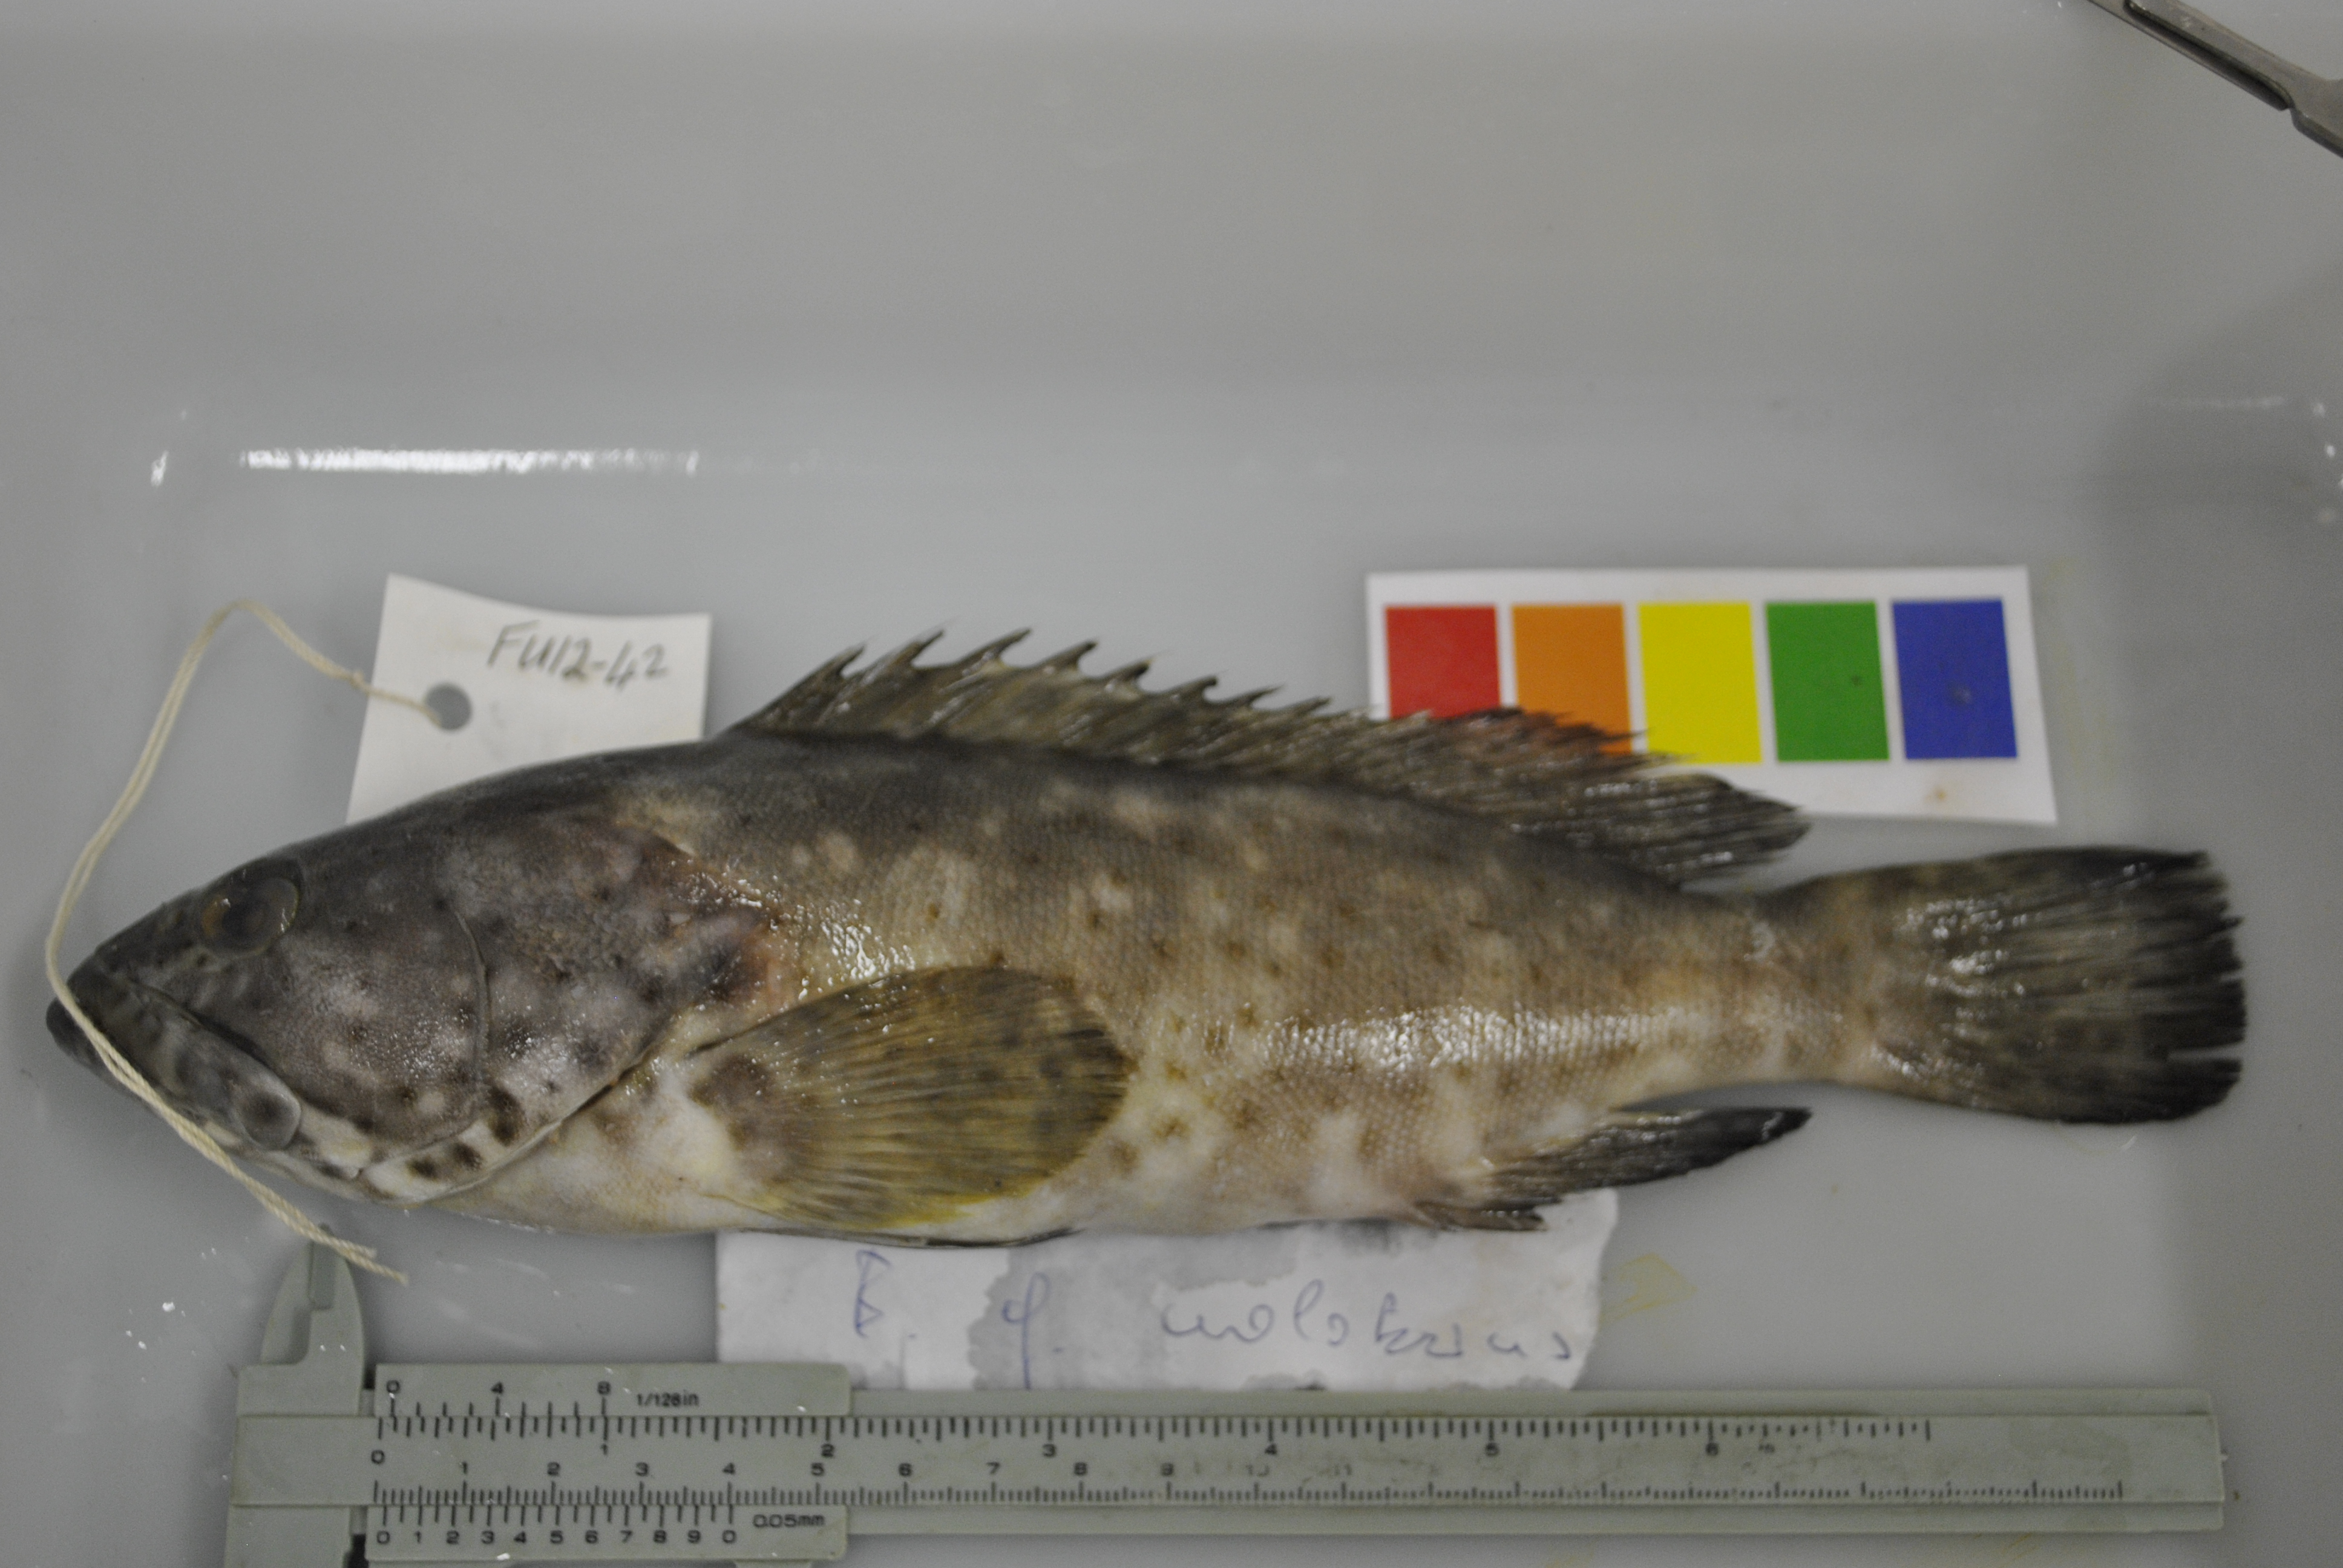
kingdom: Animalia
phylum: Chordata
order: Perciformes
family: Serranidae
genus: Epinephelus
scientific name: Epinephelus malabaricus
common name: Malabar grouper
